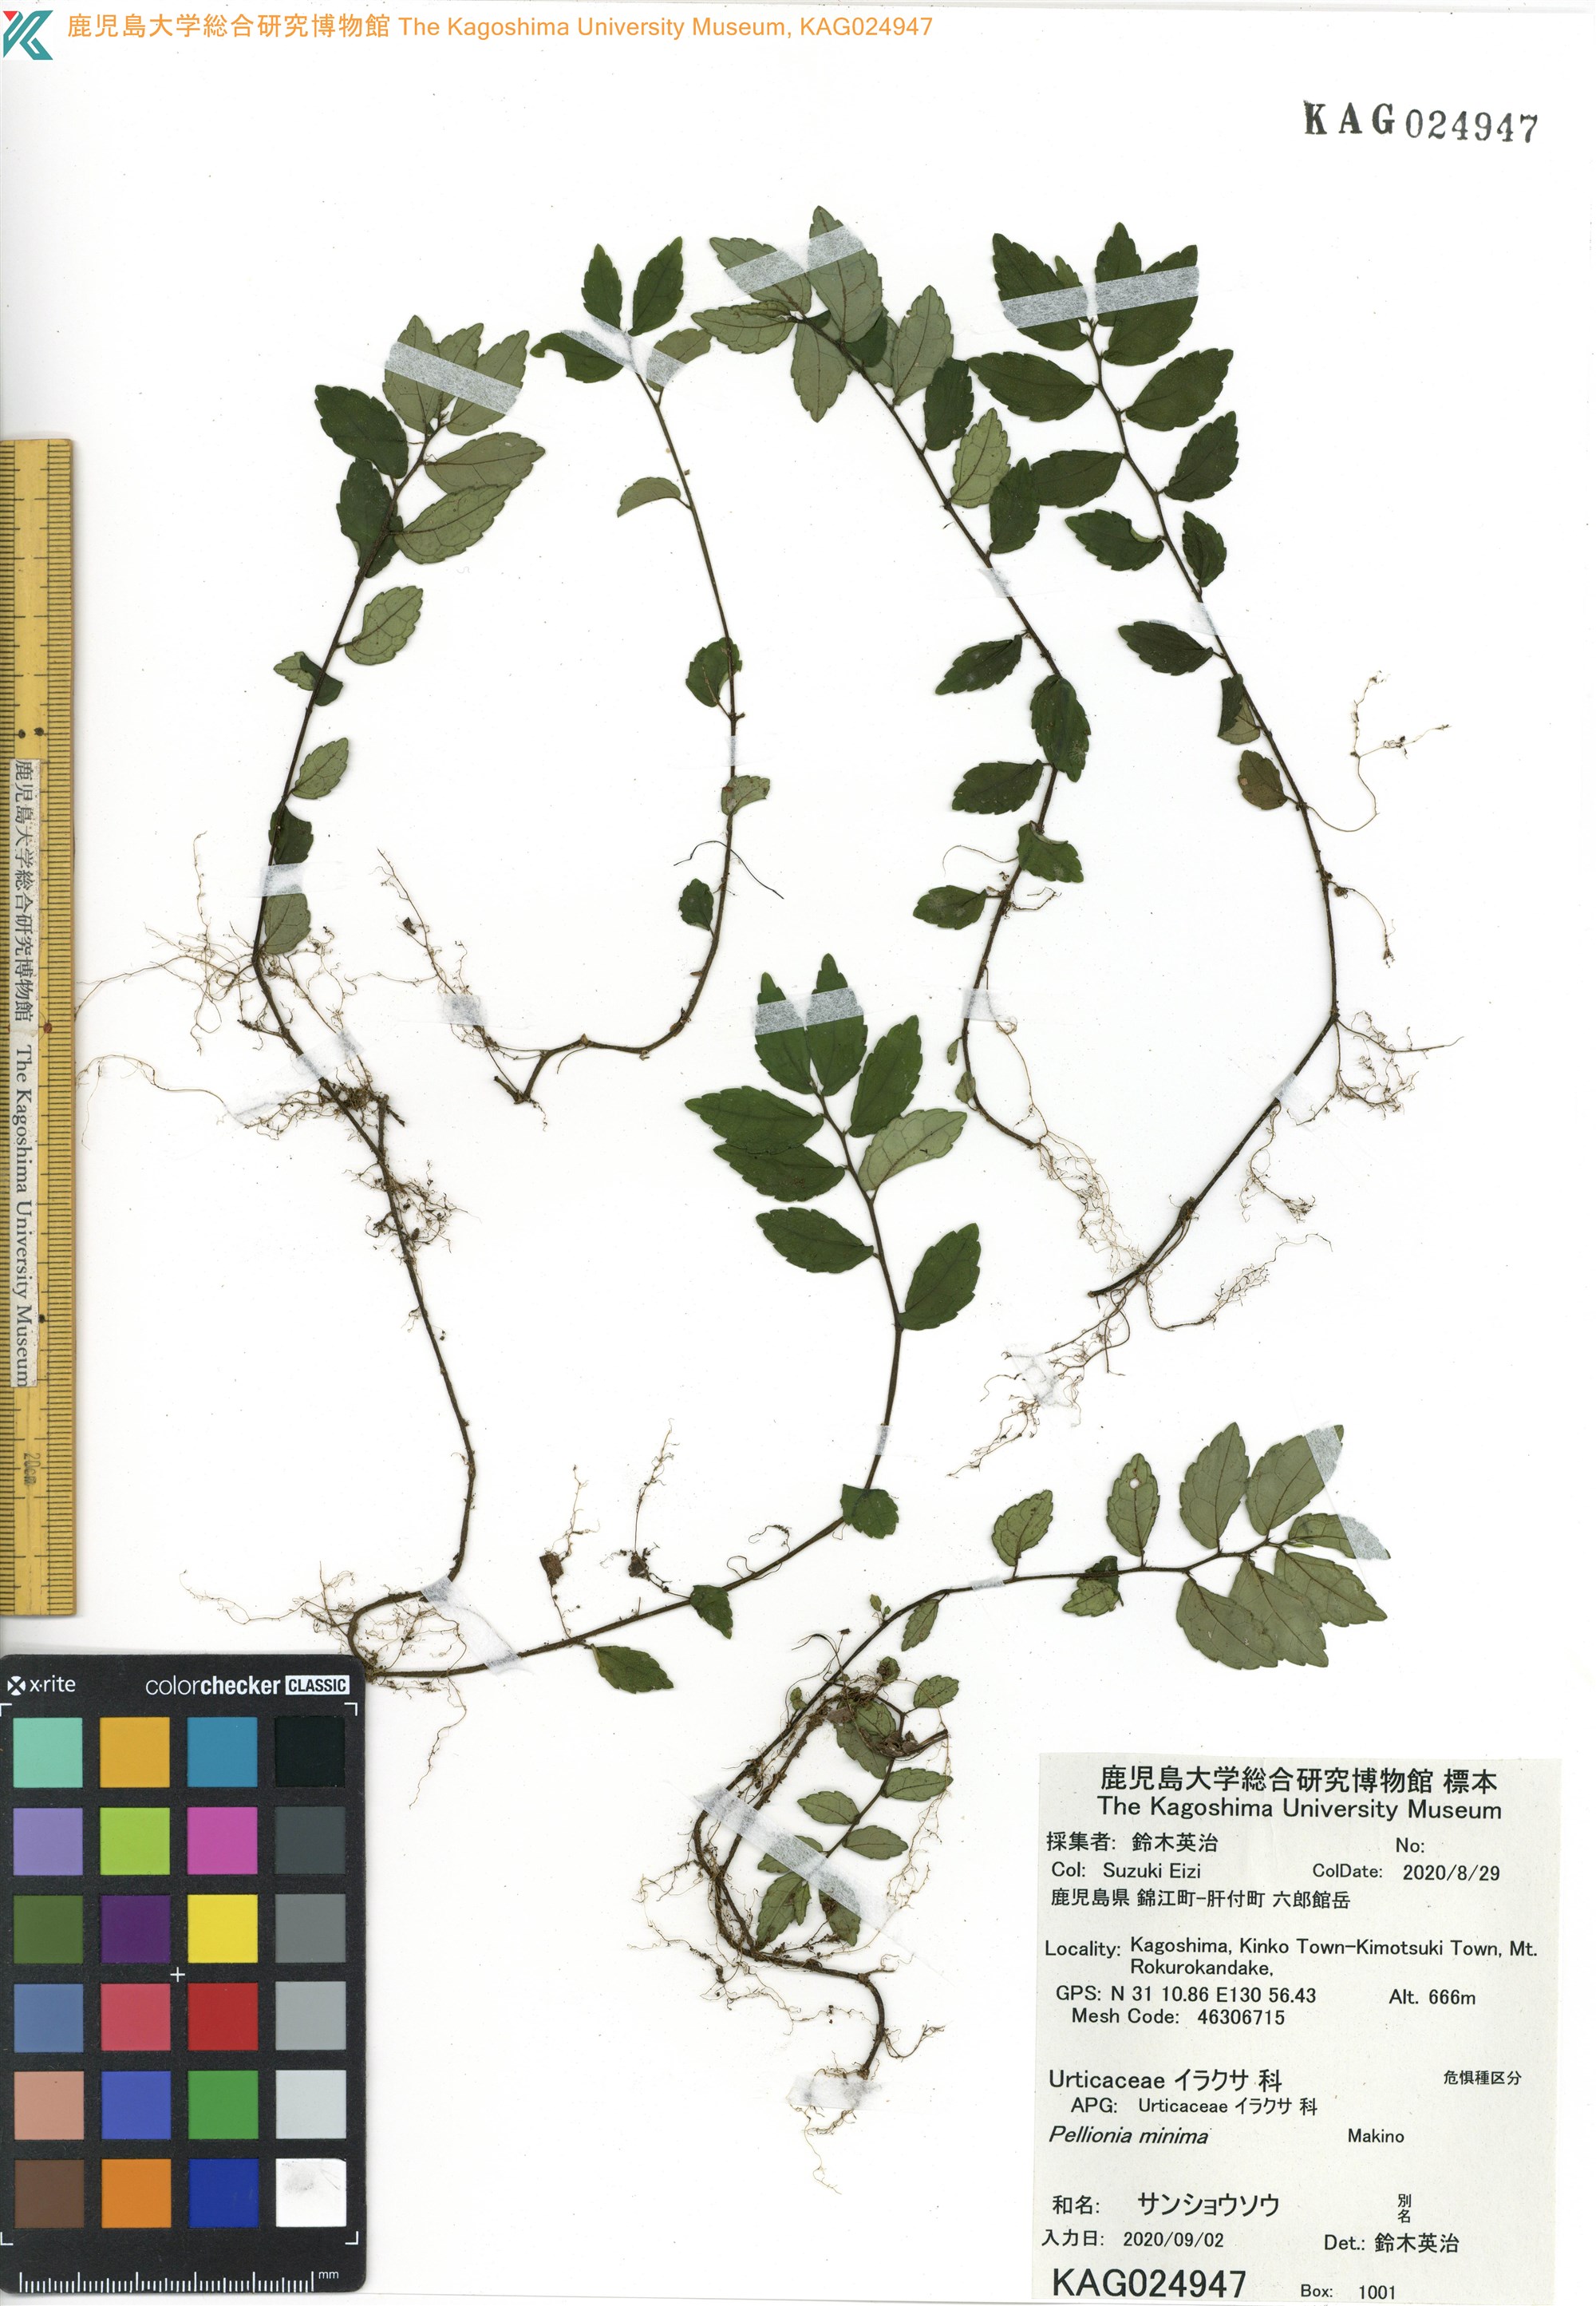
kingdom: Plantae
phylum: Tracheophyta
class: Magnoliopsida
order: Rosales
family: Urticaceae
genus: Elatostema
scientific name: Elatostema brevifolium
